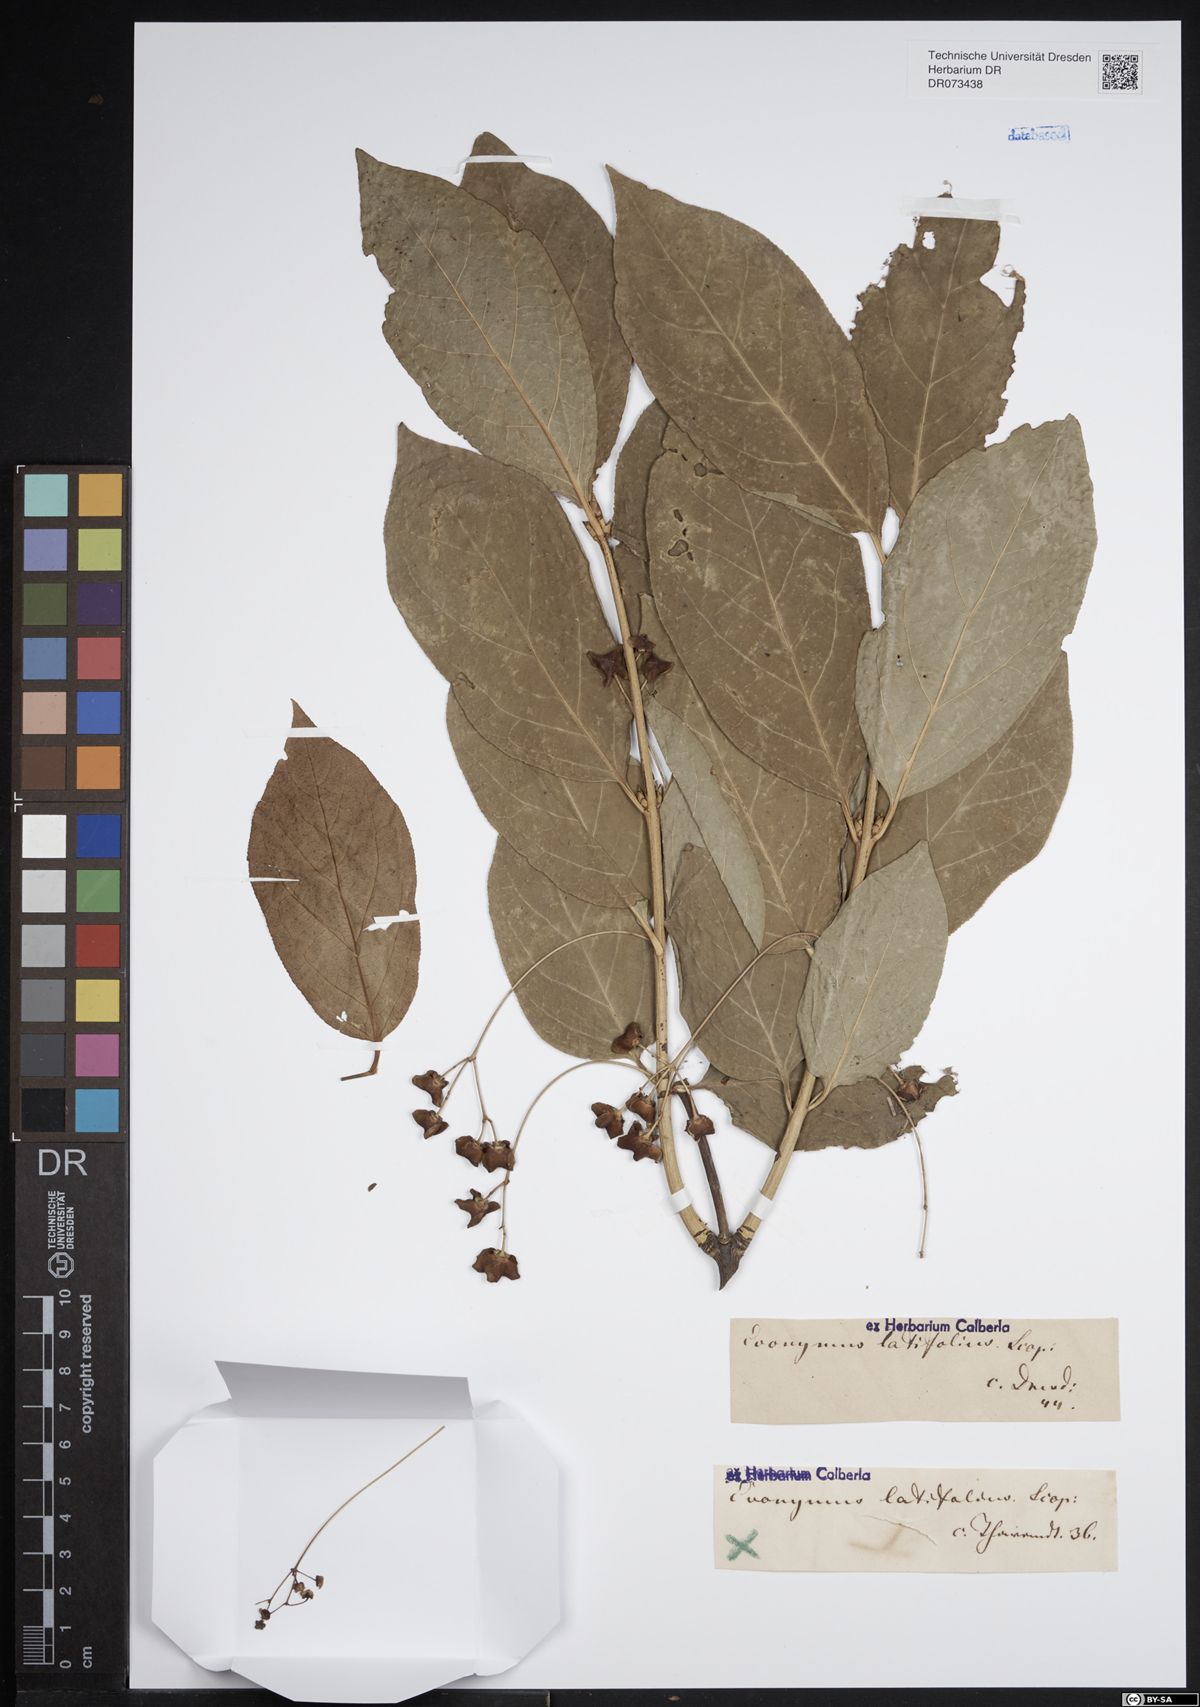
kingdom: Plantae
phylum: Tracheophyta
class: Magnoliopsida
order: Celastrales
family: Celastraceae
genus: Euonymus
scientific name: Euonymus latifolius
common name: Large-leaved spindle
